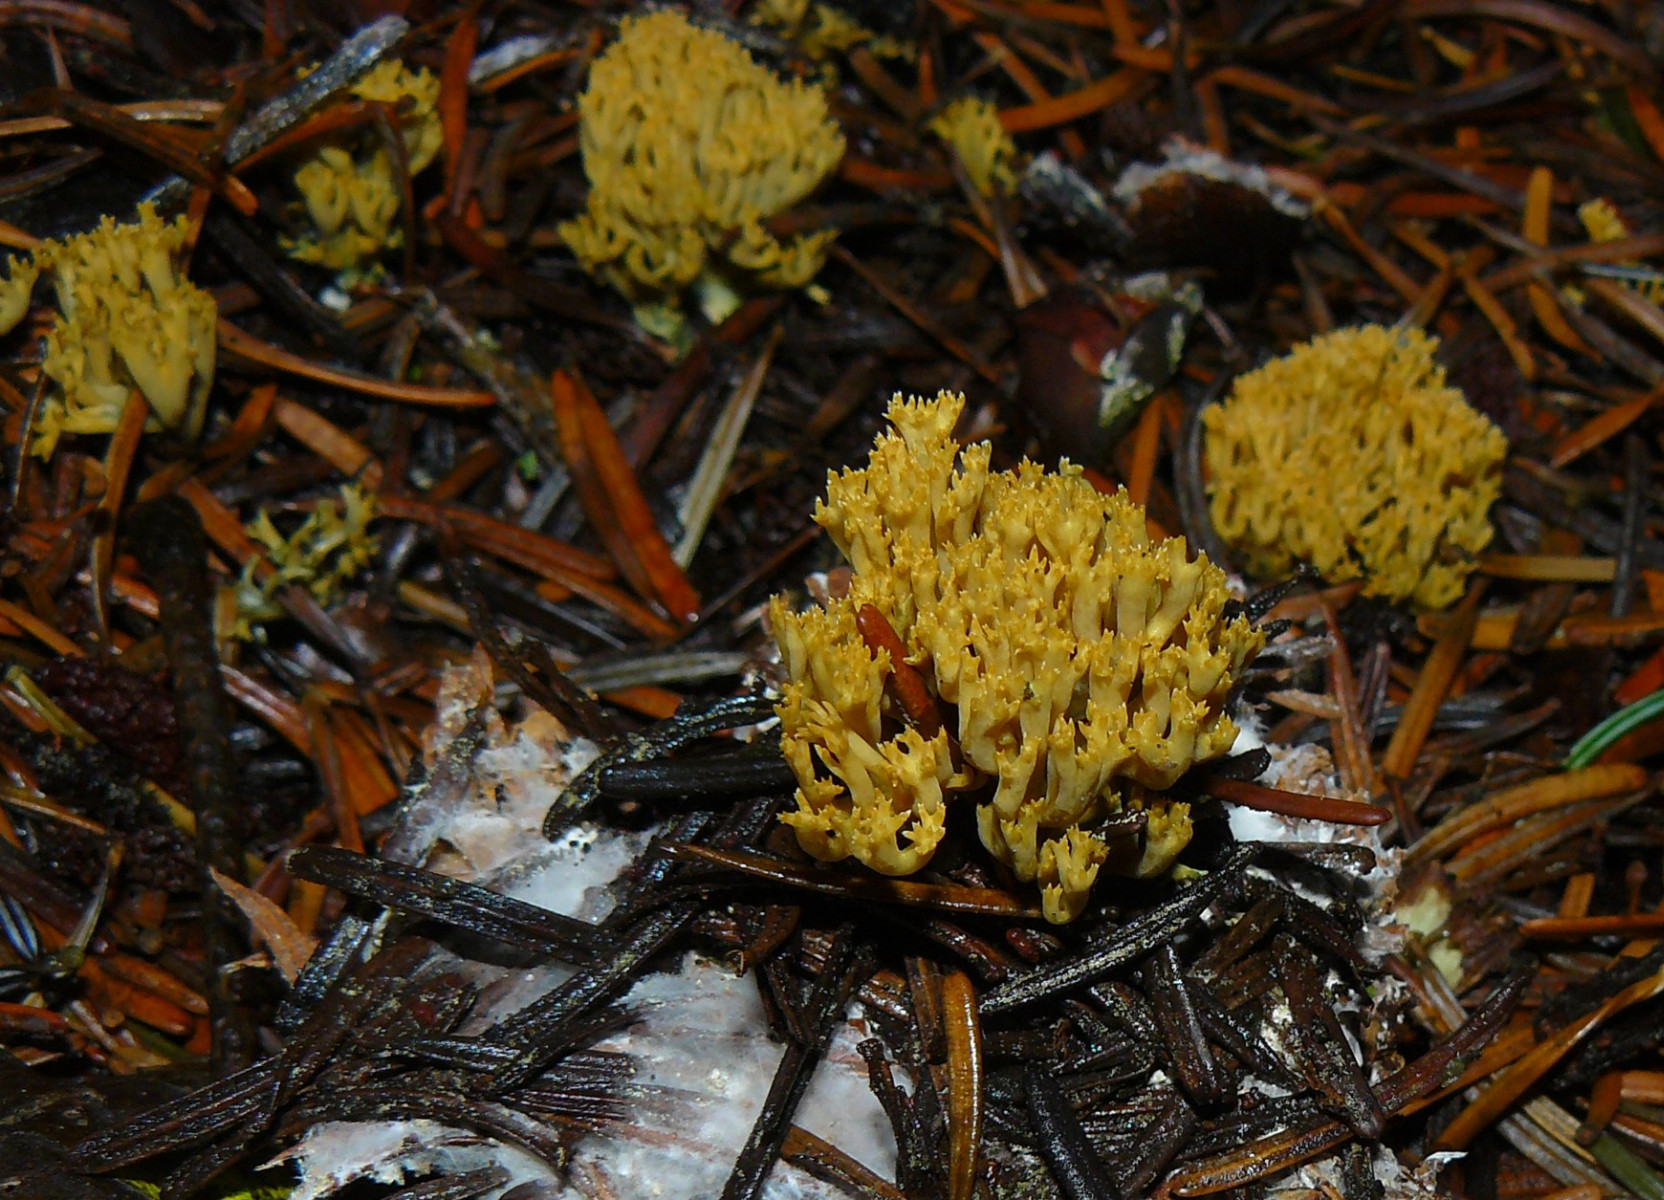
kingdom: Fungi
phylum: Basidiomycota
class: Agaricomycetes
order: Gomphales
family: Gomphaceae
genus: Phaeoclavulina
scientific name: Phaeoclavulina eumorpha
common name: gran-koralsvamp
